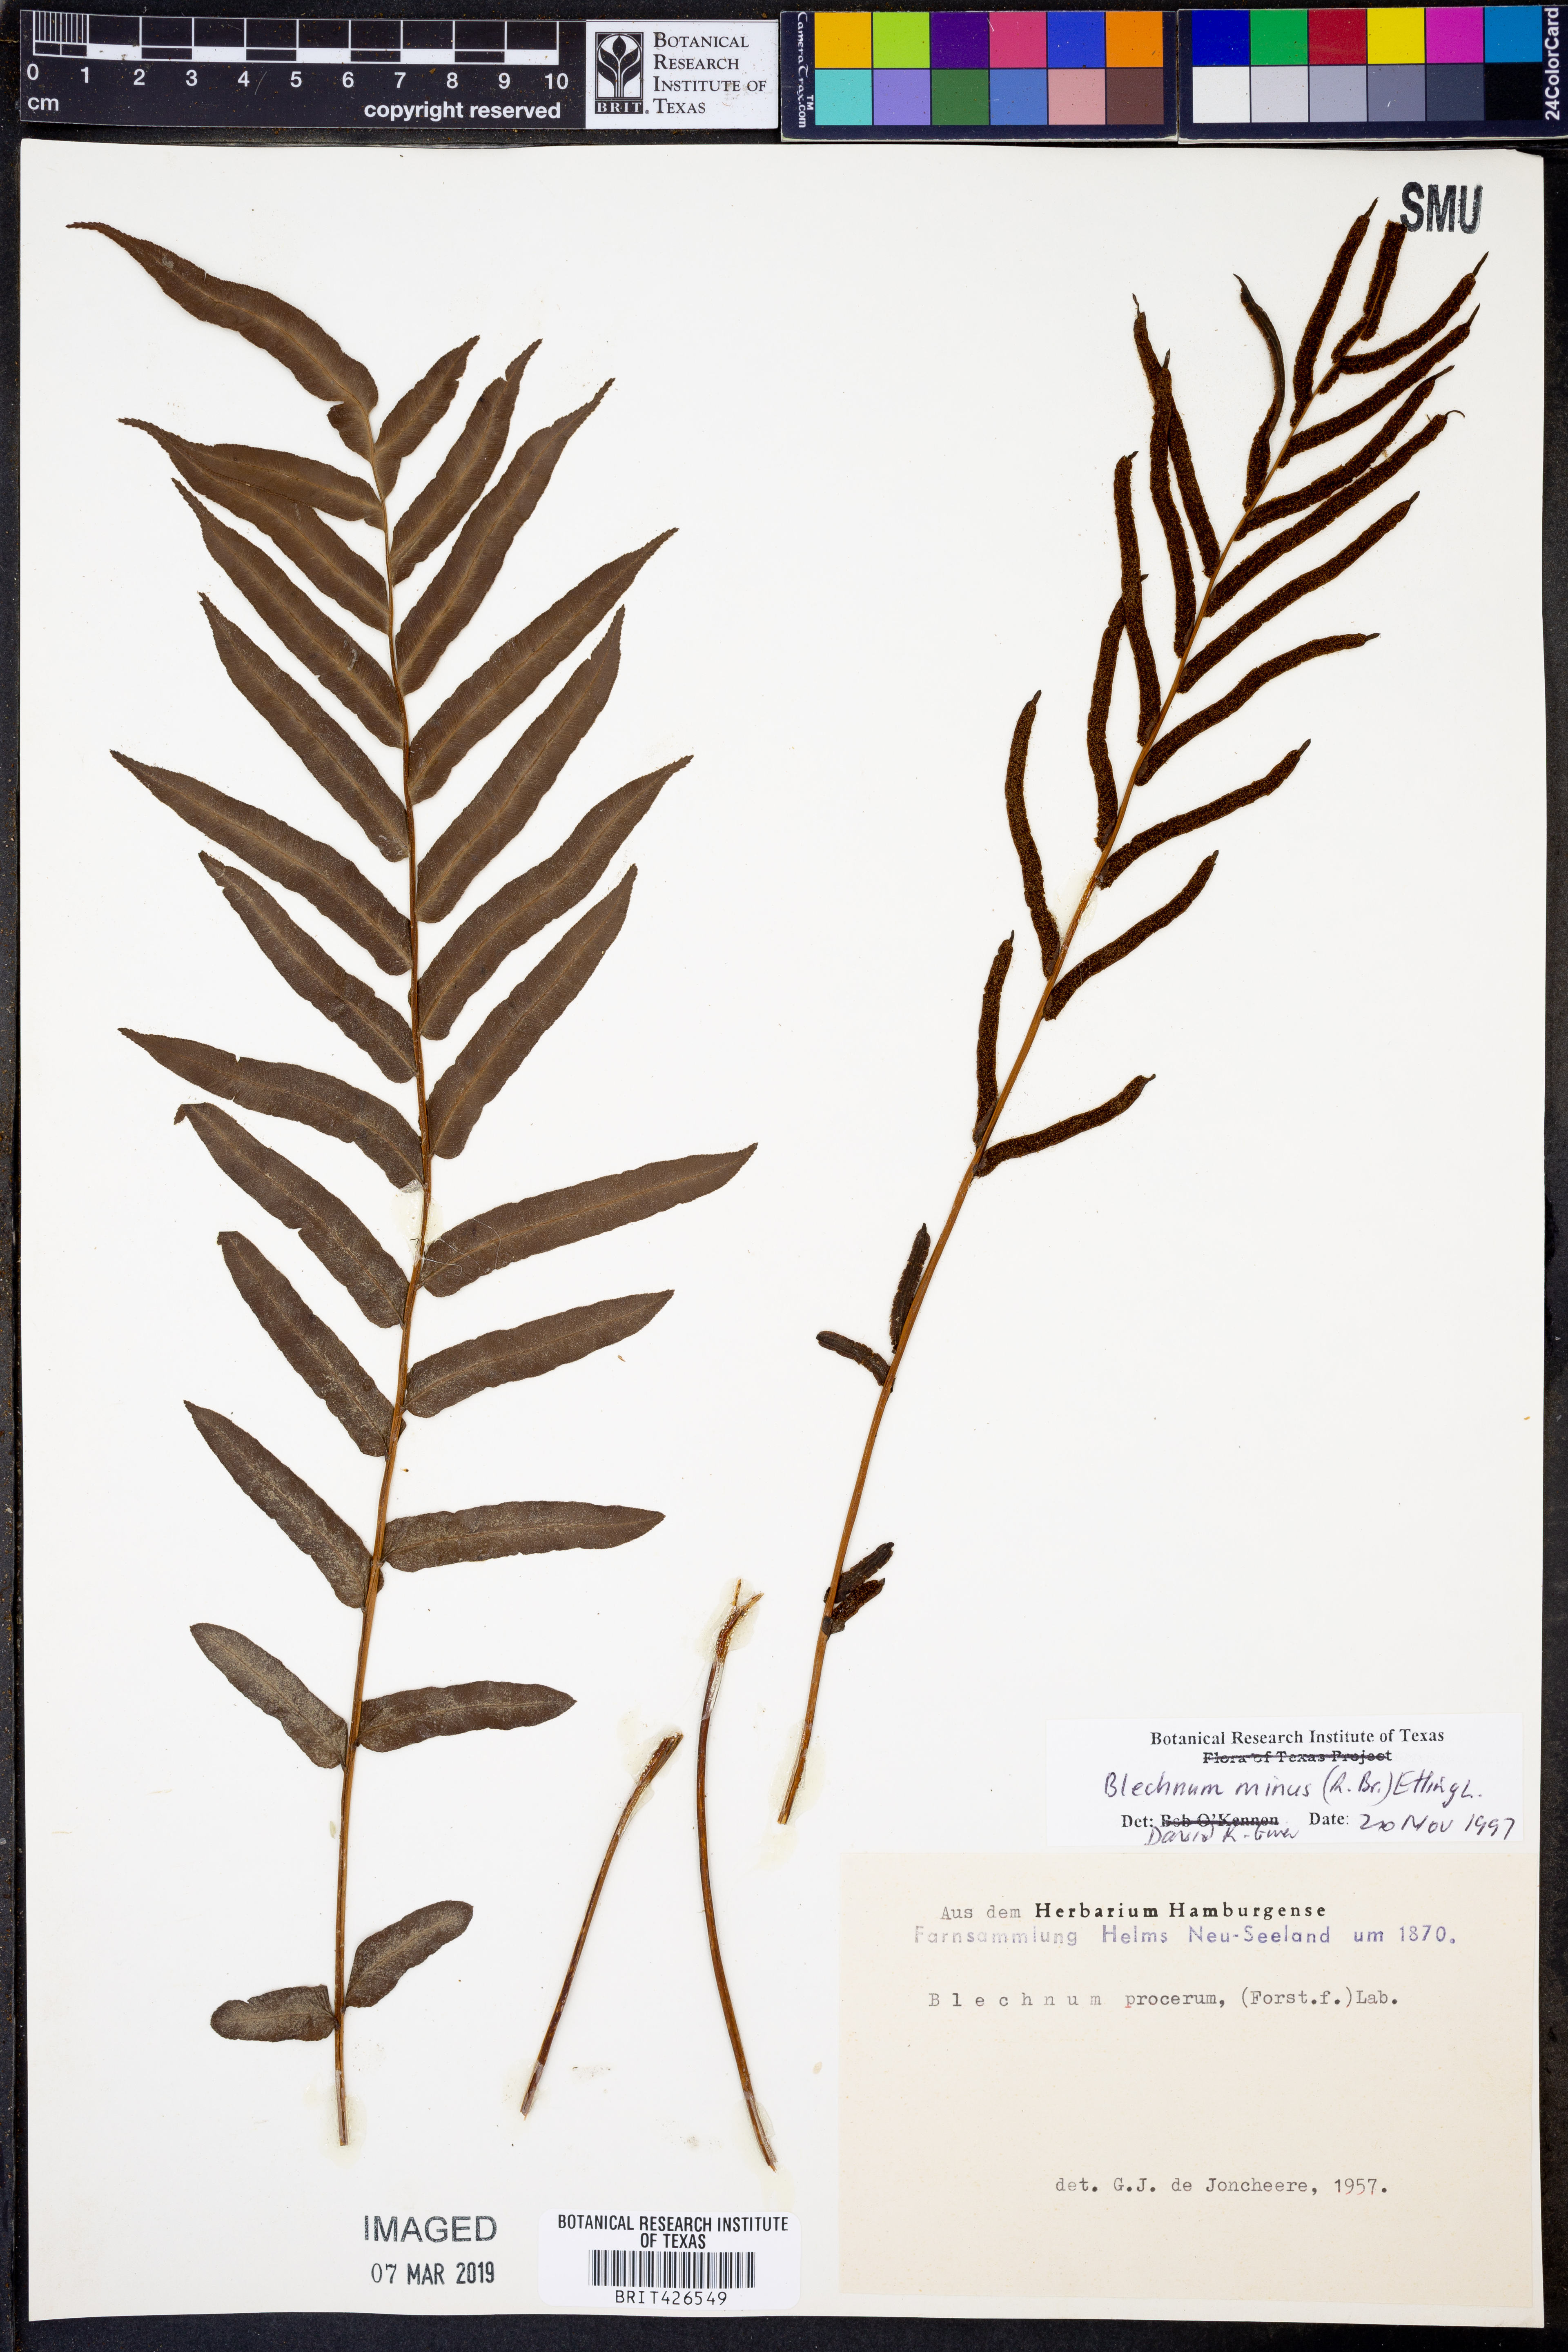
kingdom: Plantae
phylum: Tracheophyta
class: Polypodiopsida
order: Polypodiales
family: Blechnaceae
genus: Parablechnum
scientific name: Parablechnum minus
